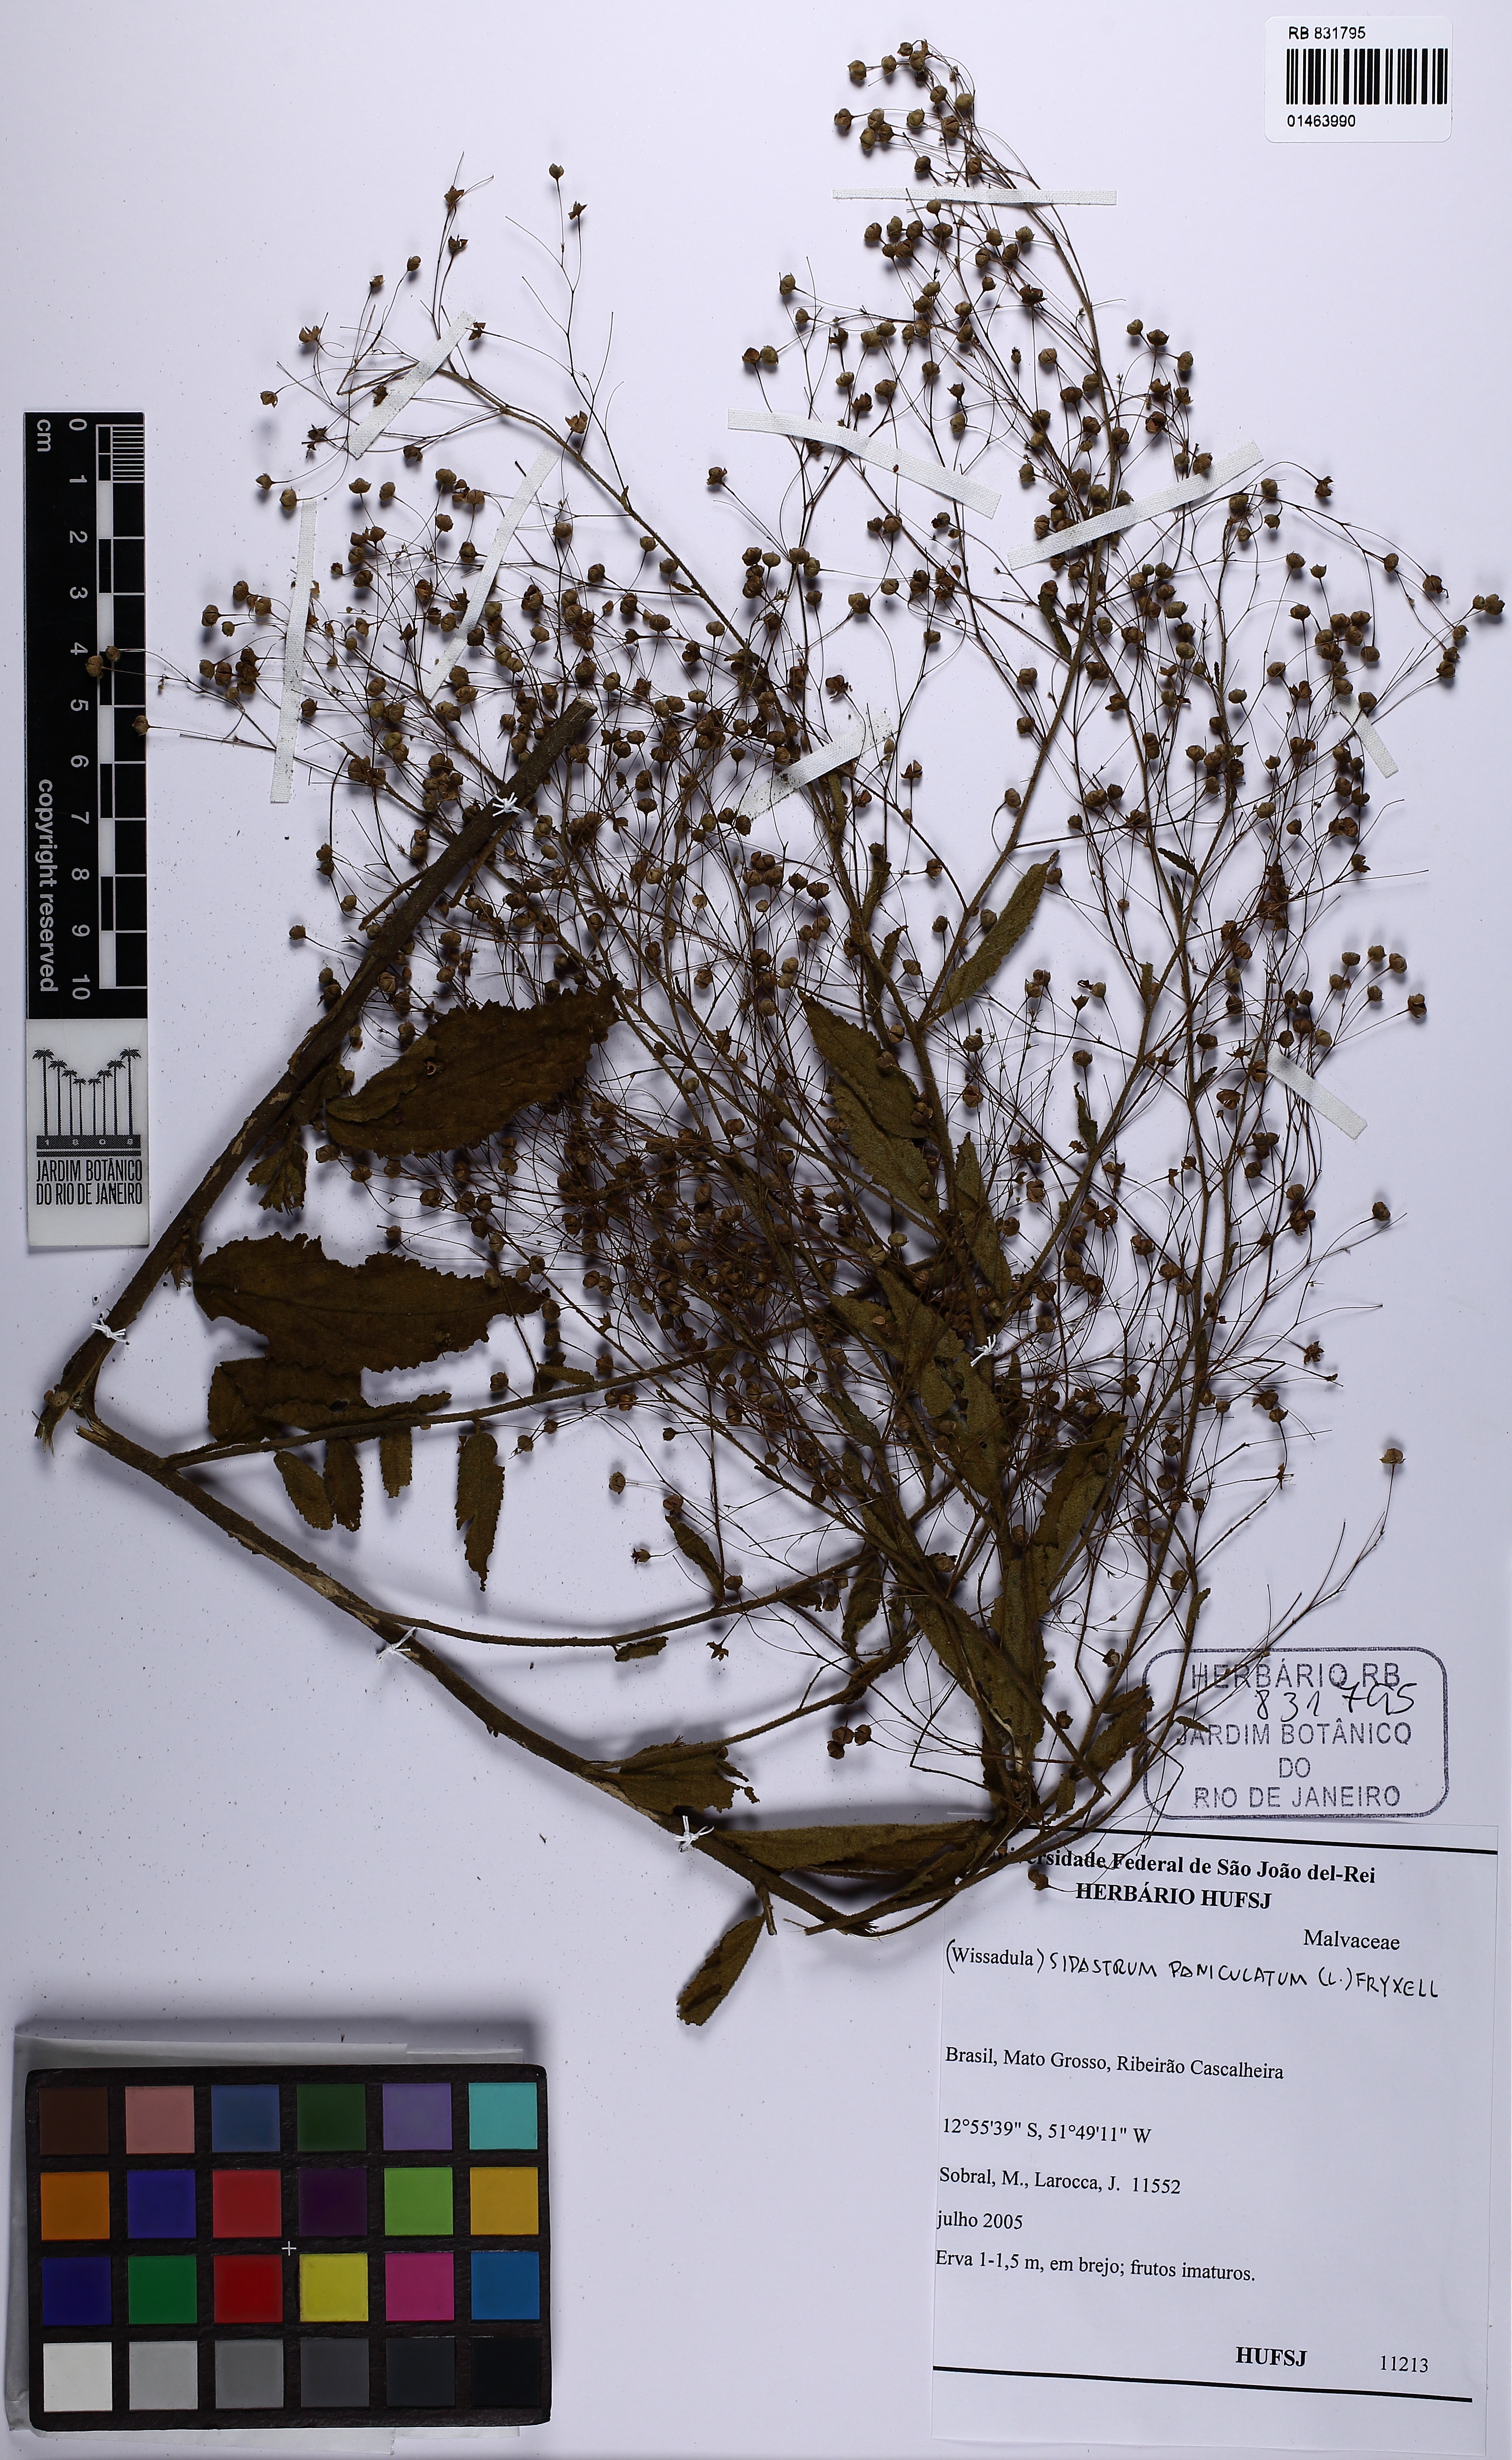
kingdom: Plantae
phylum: Tracheophyta
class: Magnoliopsida
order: Malvales
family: Malvaceae
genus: Sidastrum
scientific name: Sidastrum paniculatum
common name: Panicled sandmallow
